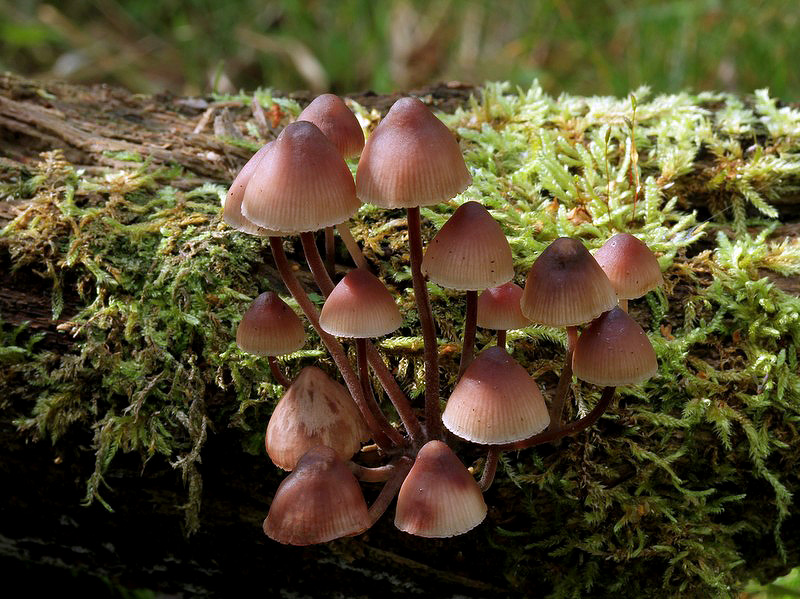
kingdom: Fungi
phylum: Basidiomycota
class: Agaricomycetes
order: Agaricales
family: Mycenaceae
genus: Mycena
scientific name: Mycena haematopus
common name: blødende huesvamp
